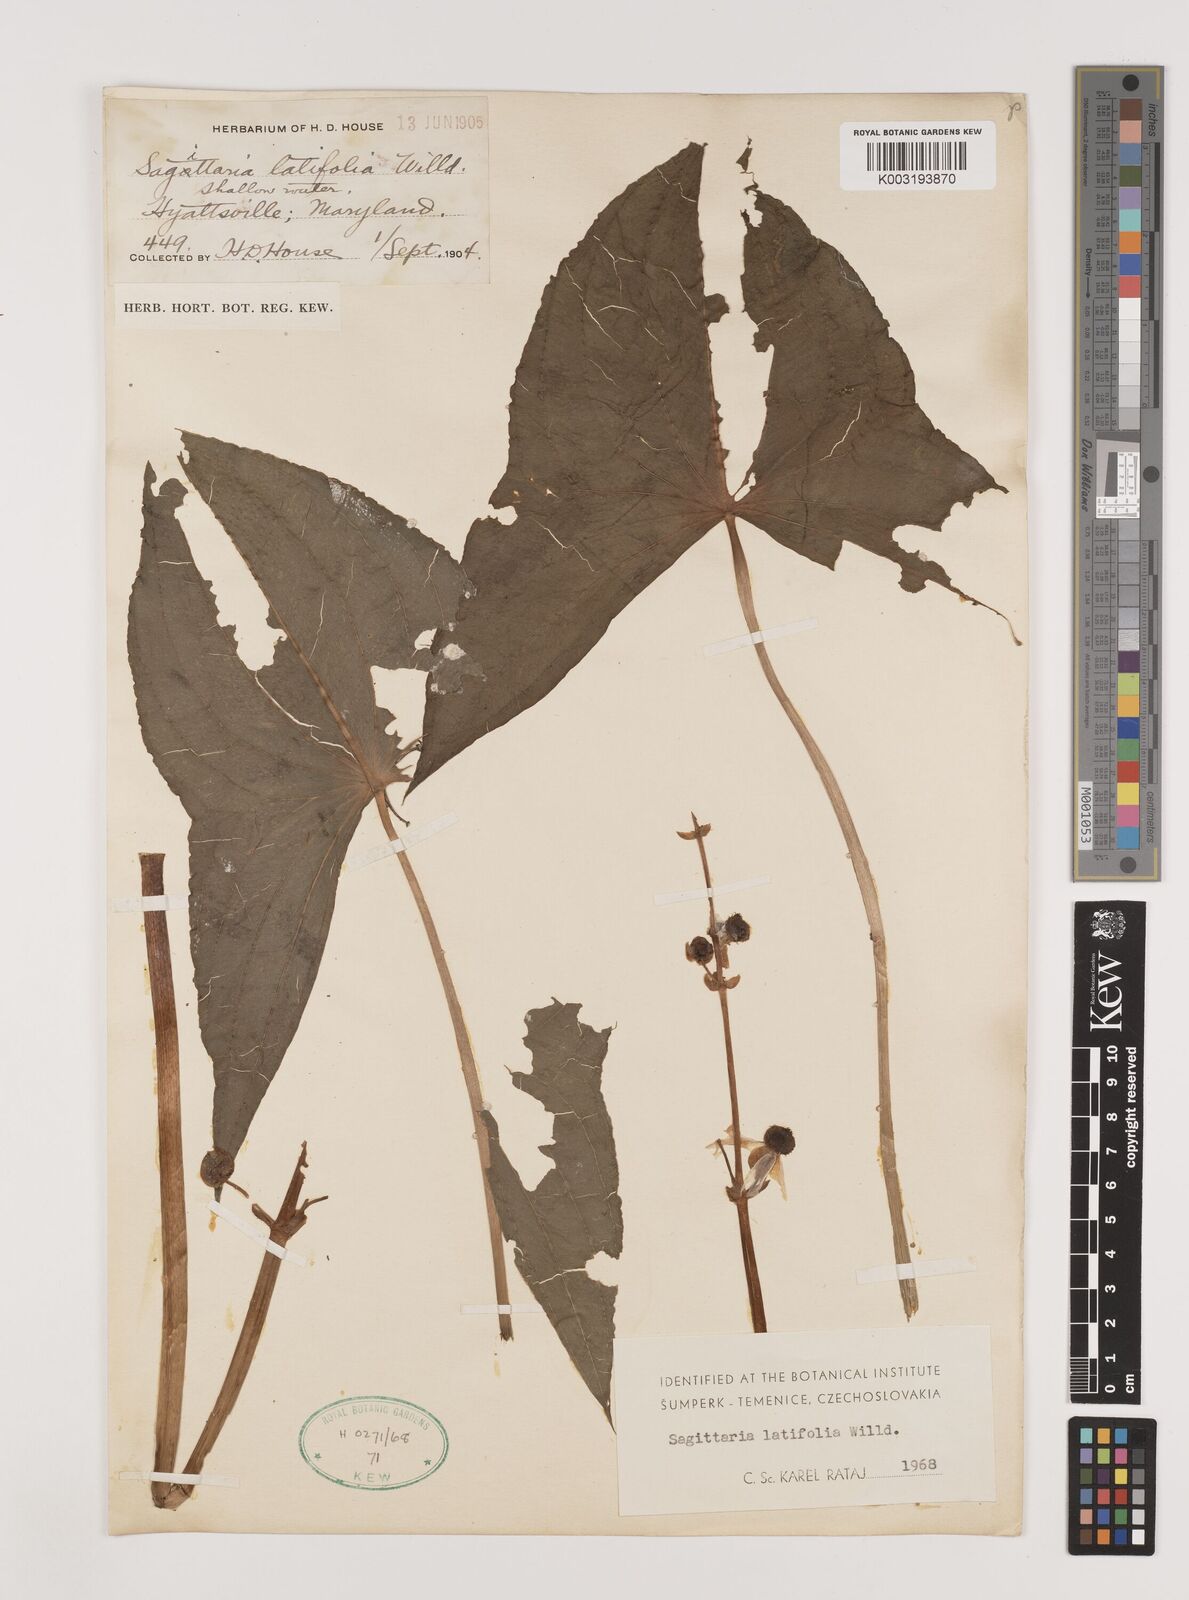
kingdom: Plantae
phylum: Tracheophyta
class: Liliopsida
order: Alismatales
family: Alismataceae
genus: Sagittaria
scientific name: Sagittaria latifolia
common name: Duck-potato
